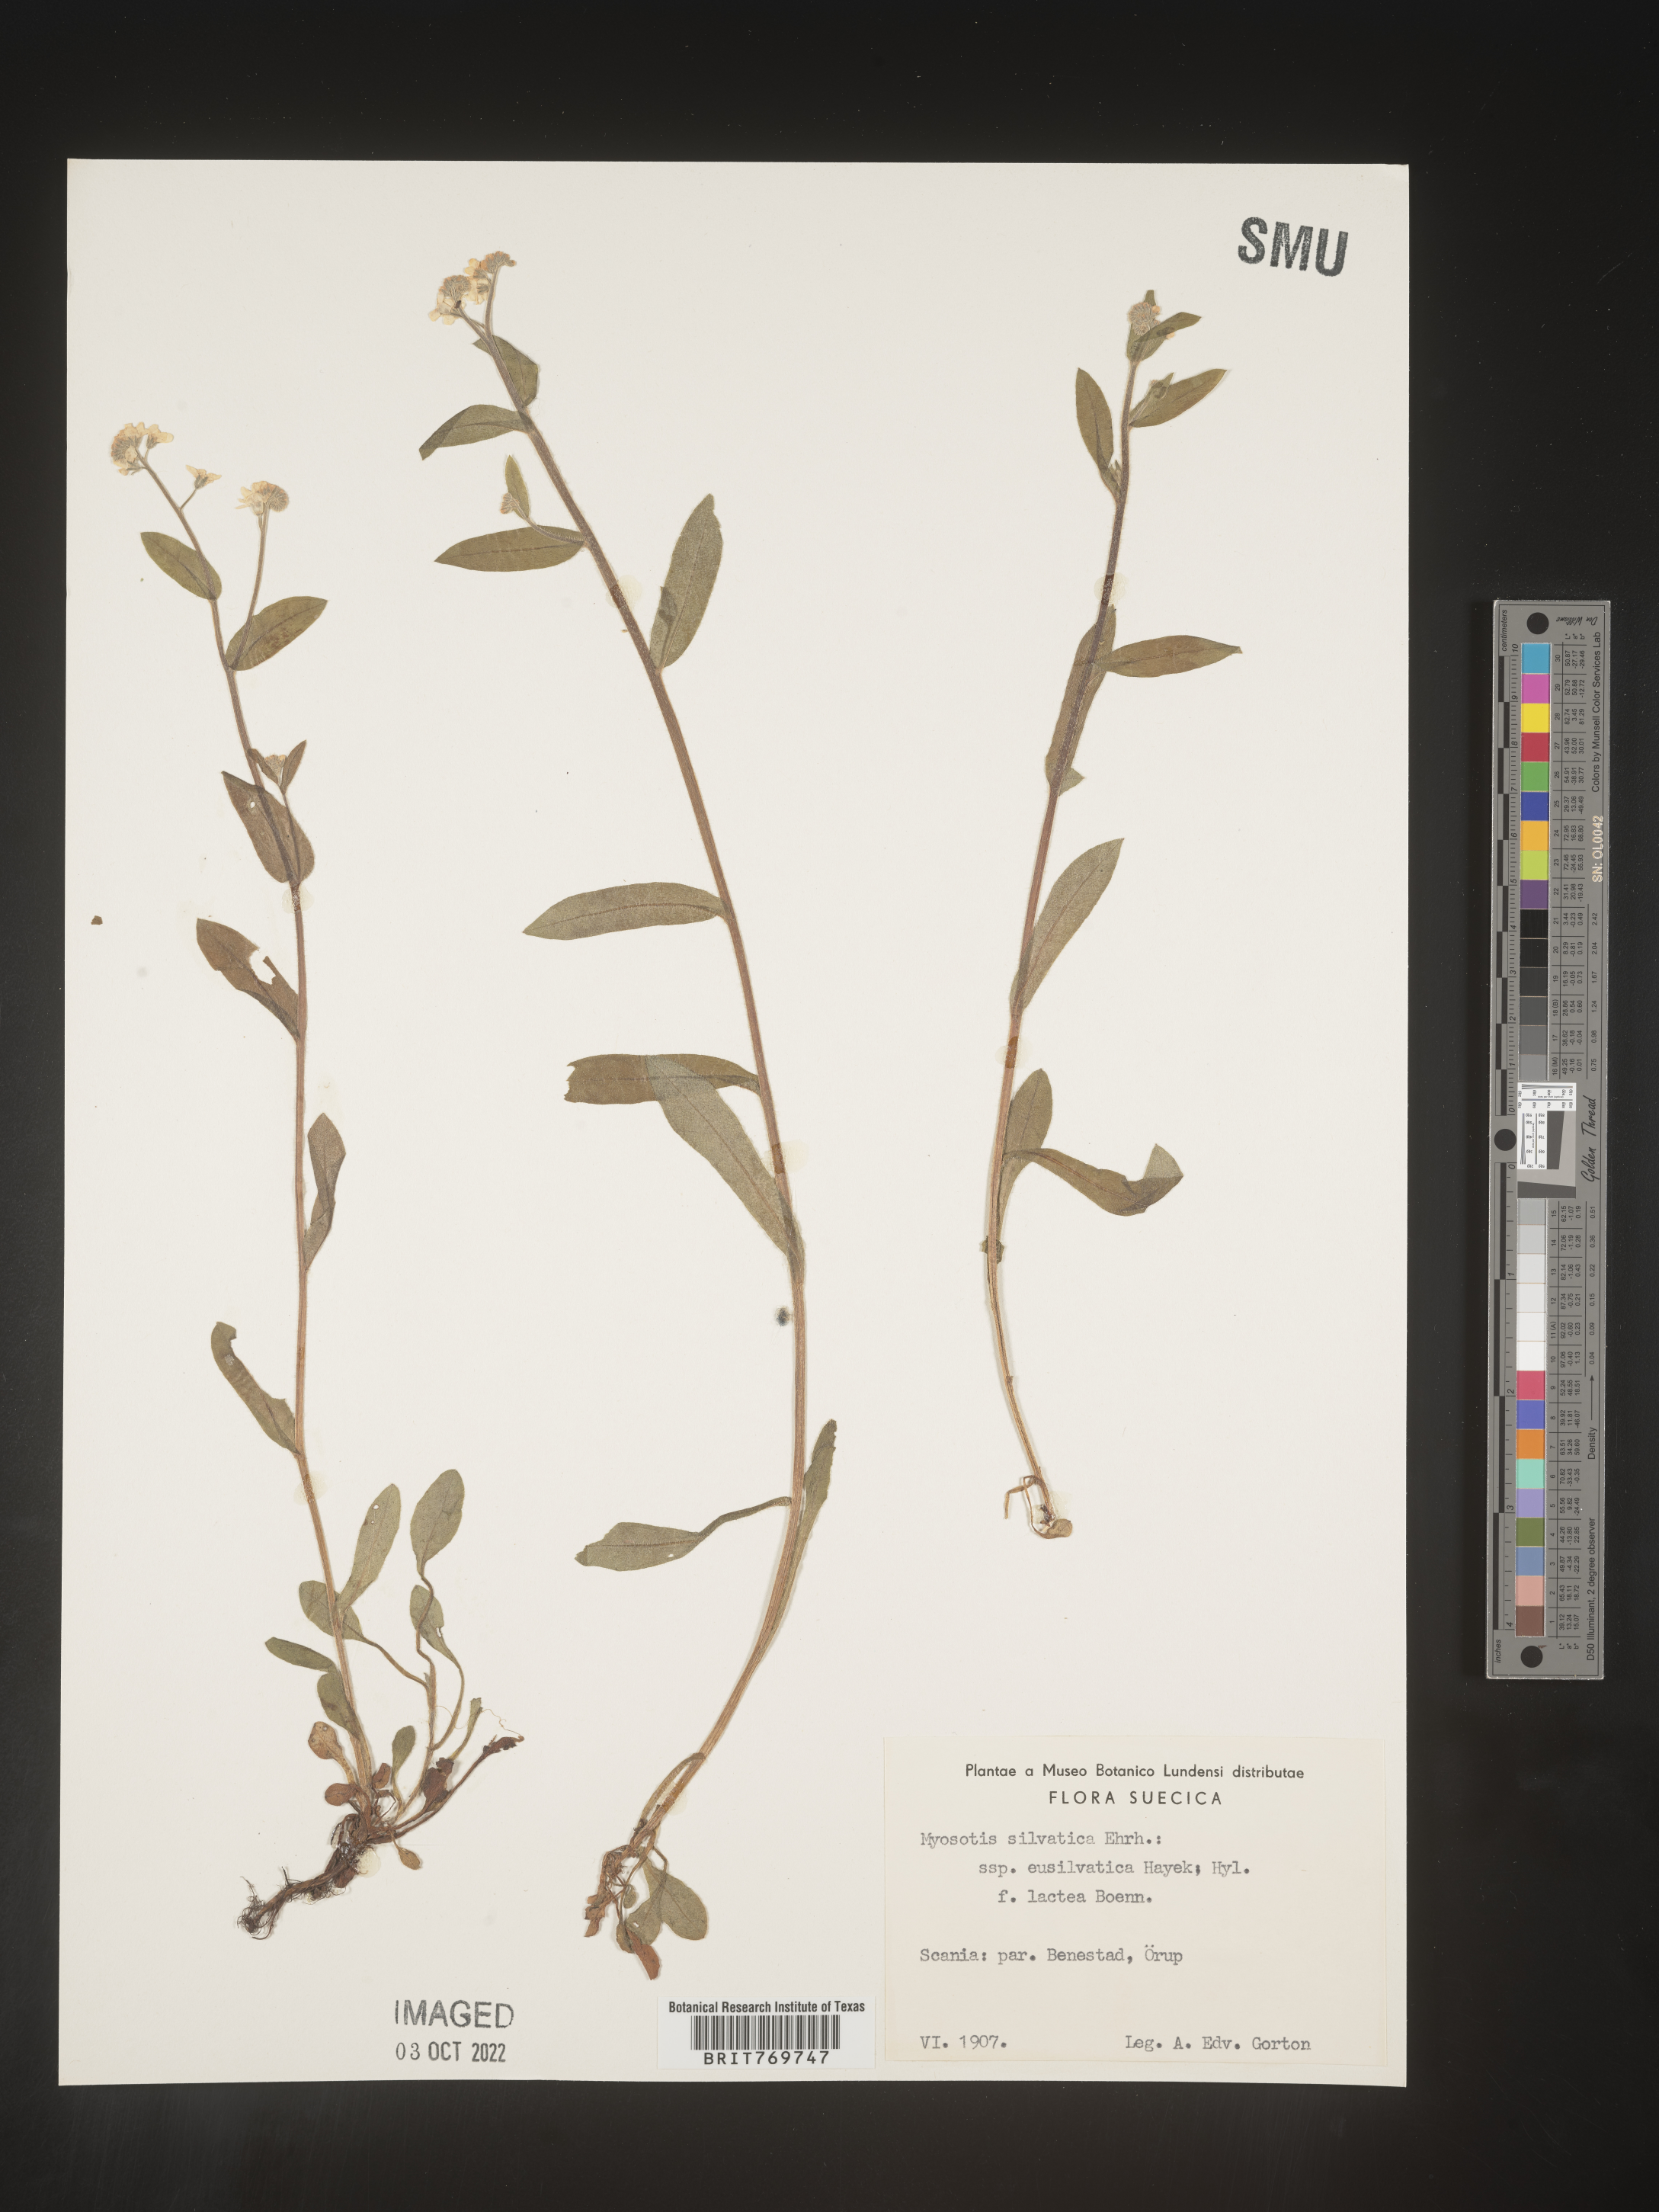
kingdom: Plantae
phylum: Tracheophyta
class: Magnoliopsida
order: Boraginales
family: Boraginaceae
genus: Myosotis
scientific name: Myosotis
